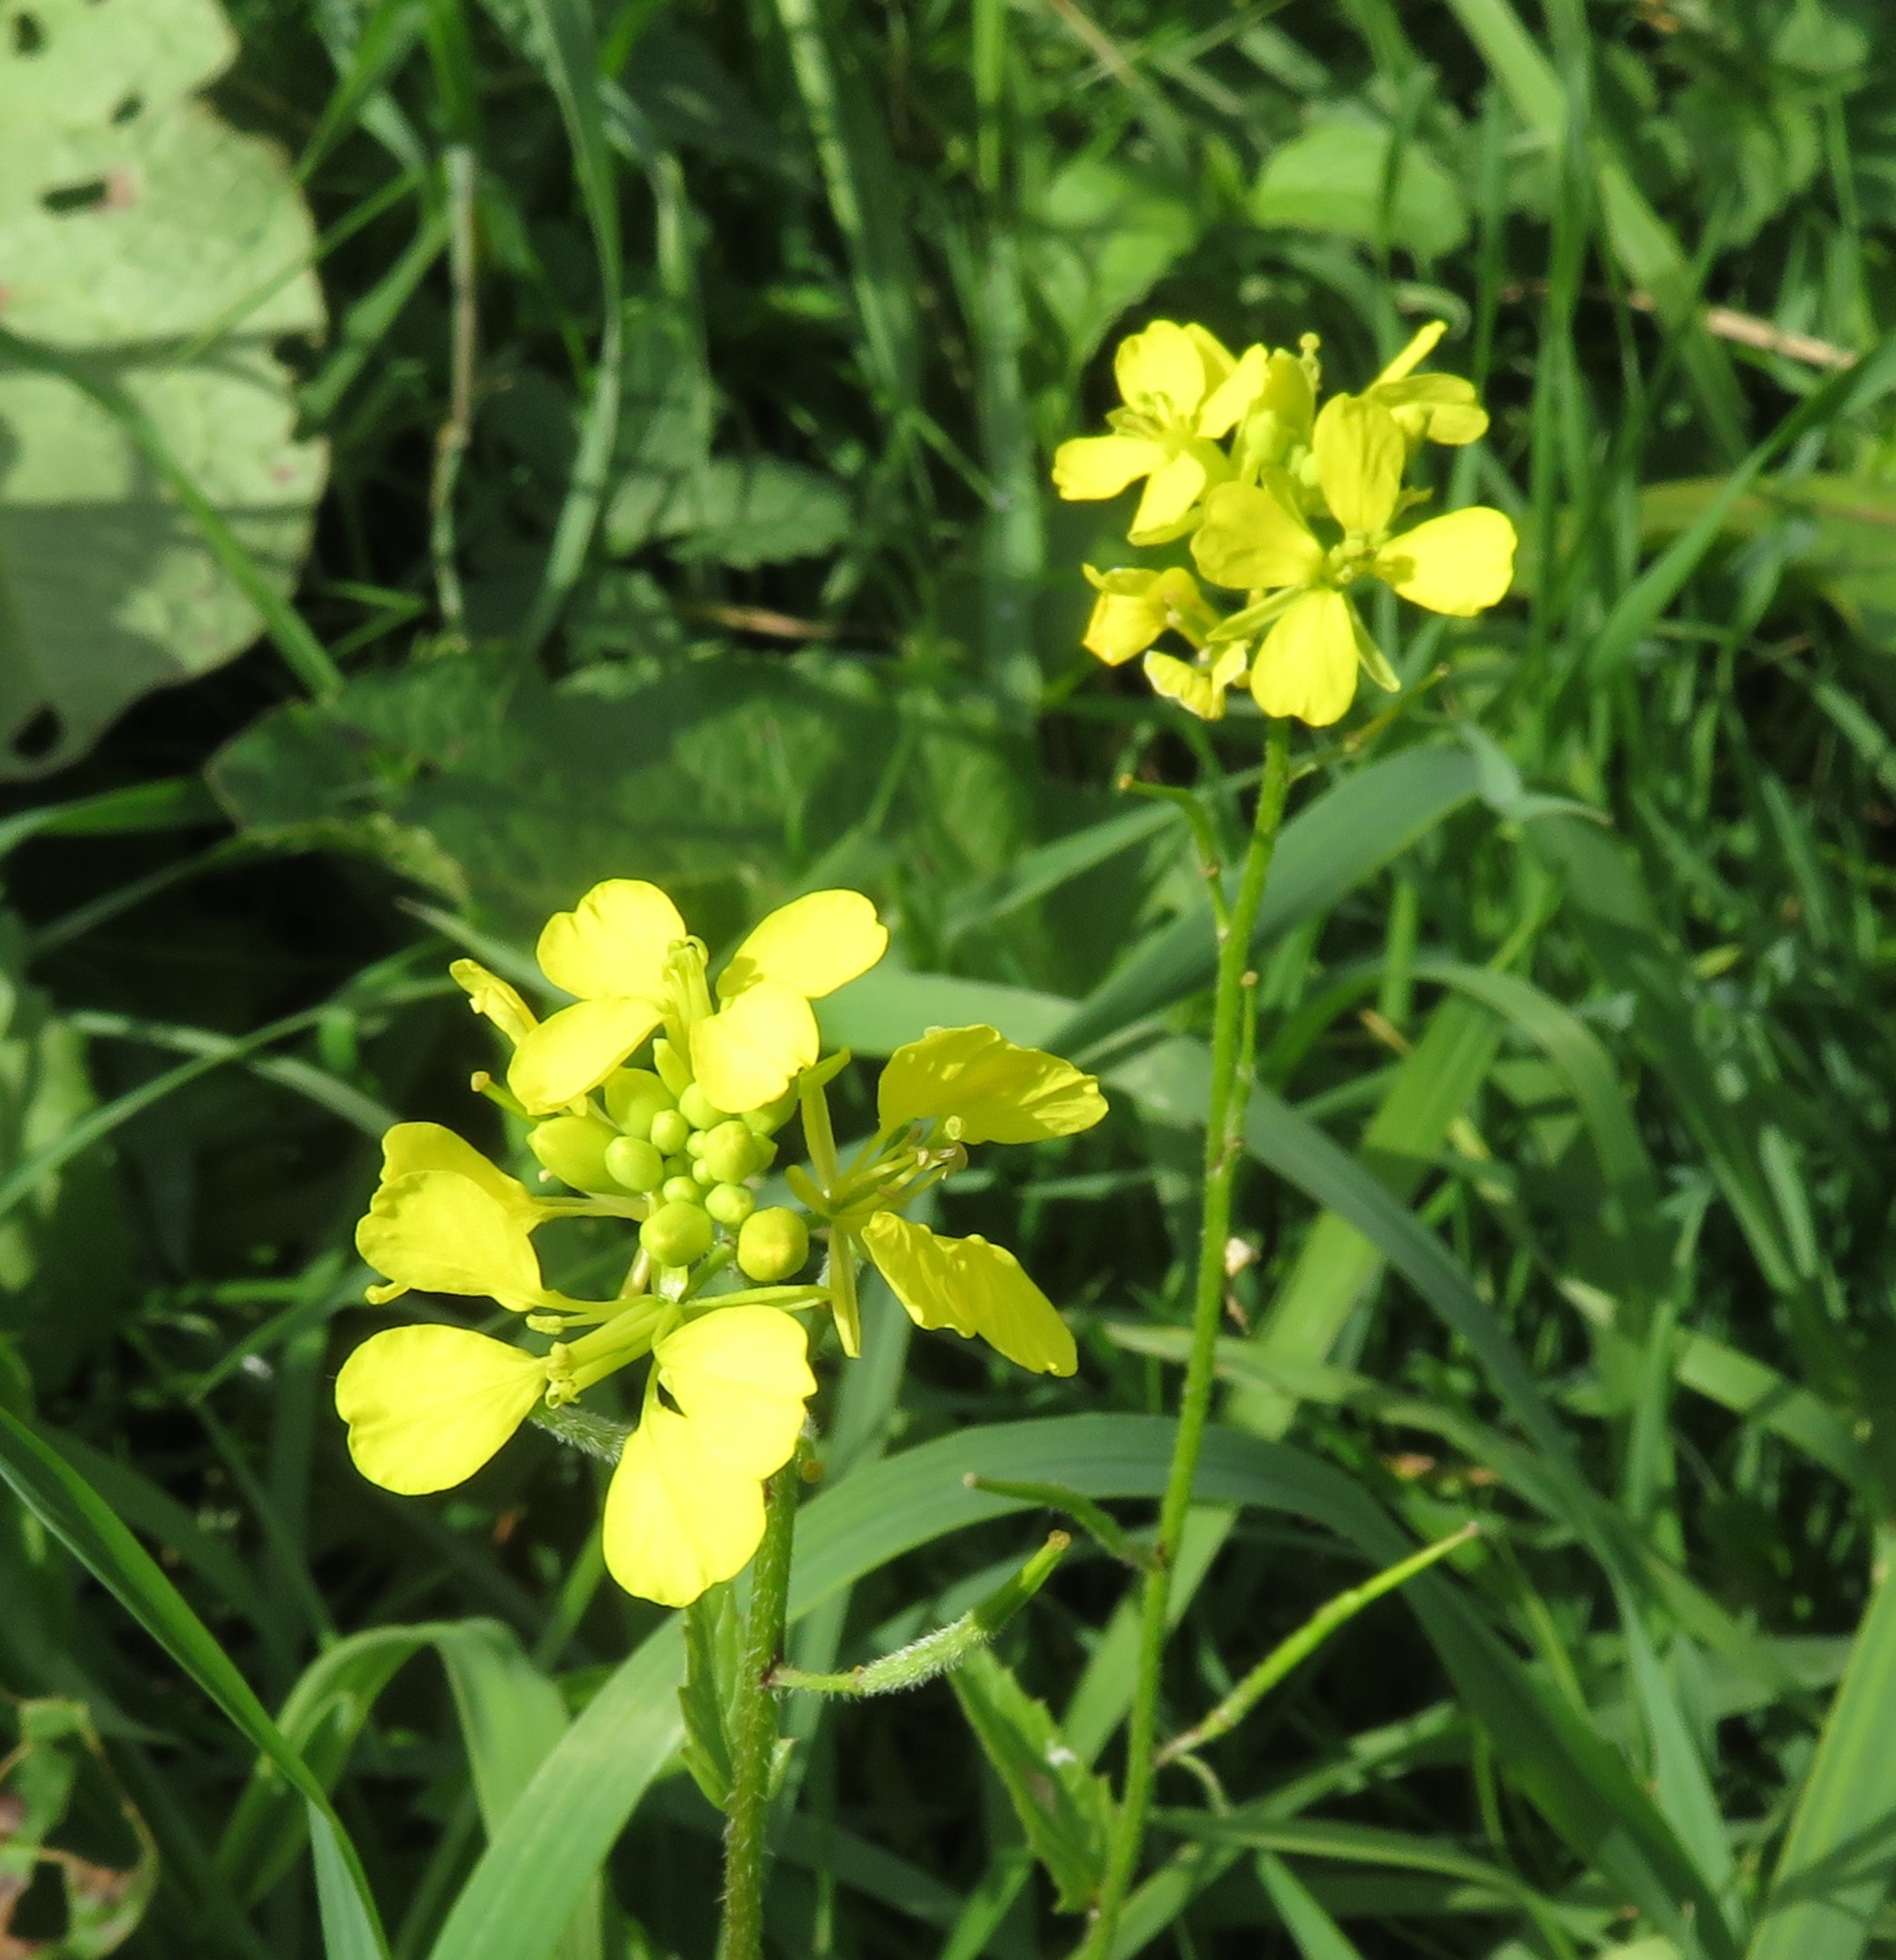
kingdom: Plantae
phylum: Tracheophyta
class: Magnoliopsida
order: Brassicales
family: Brassicaceae
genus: Sinapis
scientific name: Sinapis arvensis
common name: Ager-sennep
